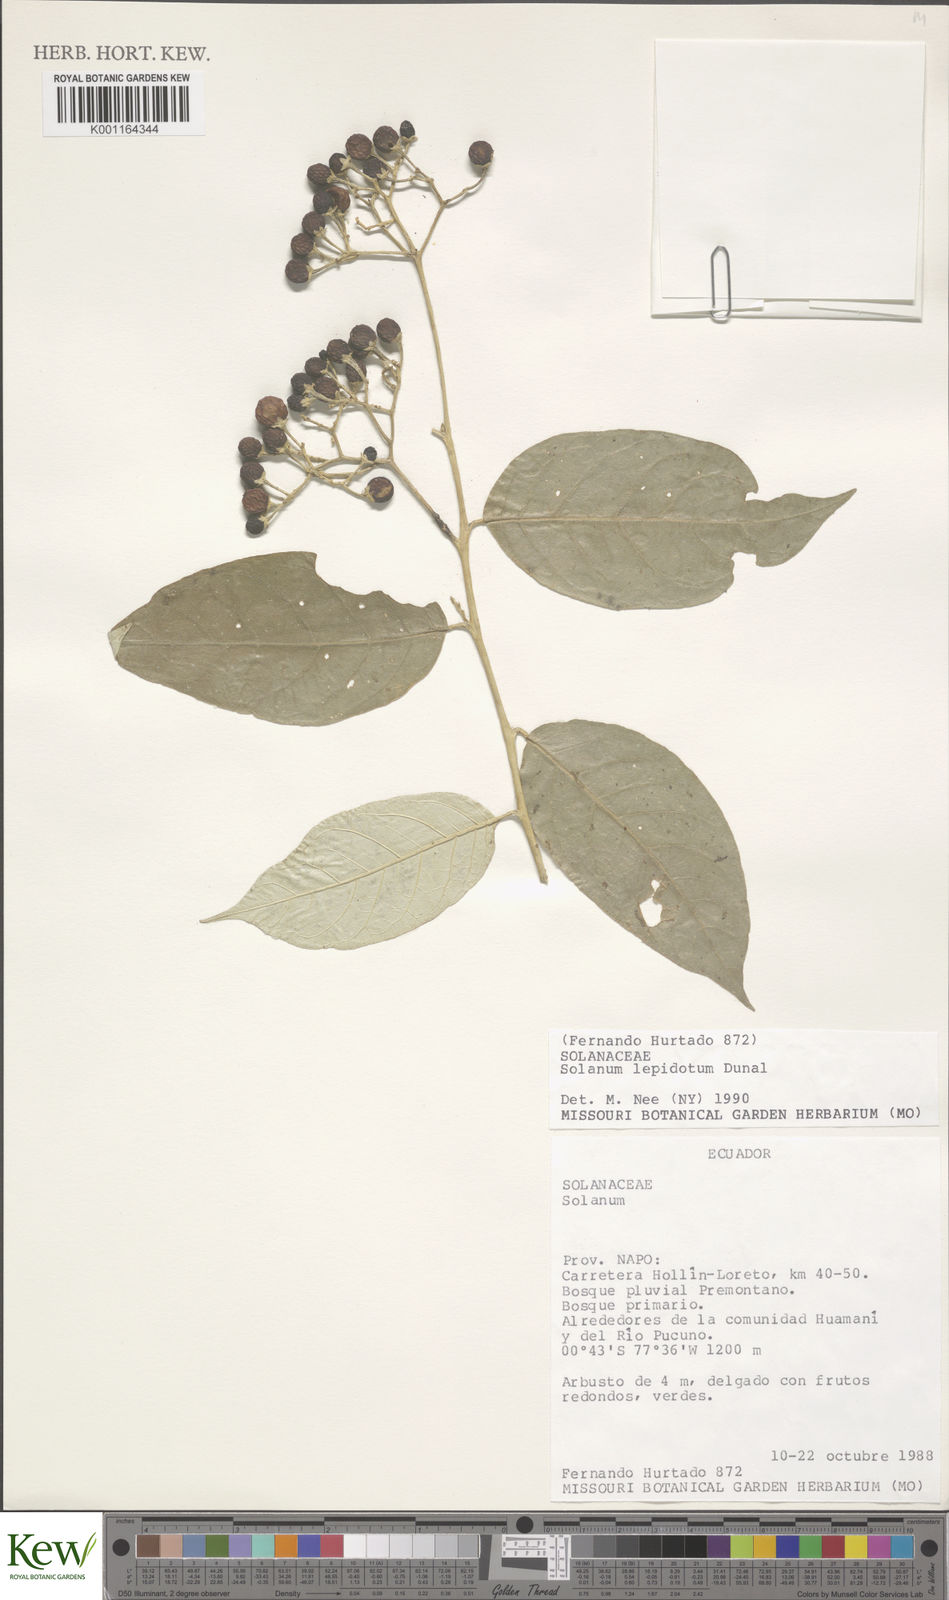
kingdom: Plantae
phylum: Tracheophyta
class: Magnoliopsida
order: Solanales
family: Solanaceae
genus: Solanum
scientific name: Solanum lepidotum
